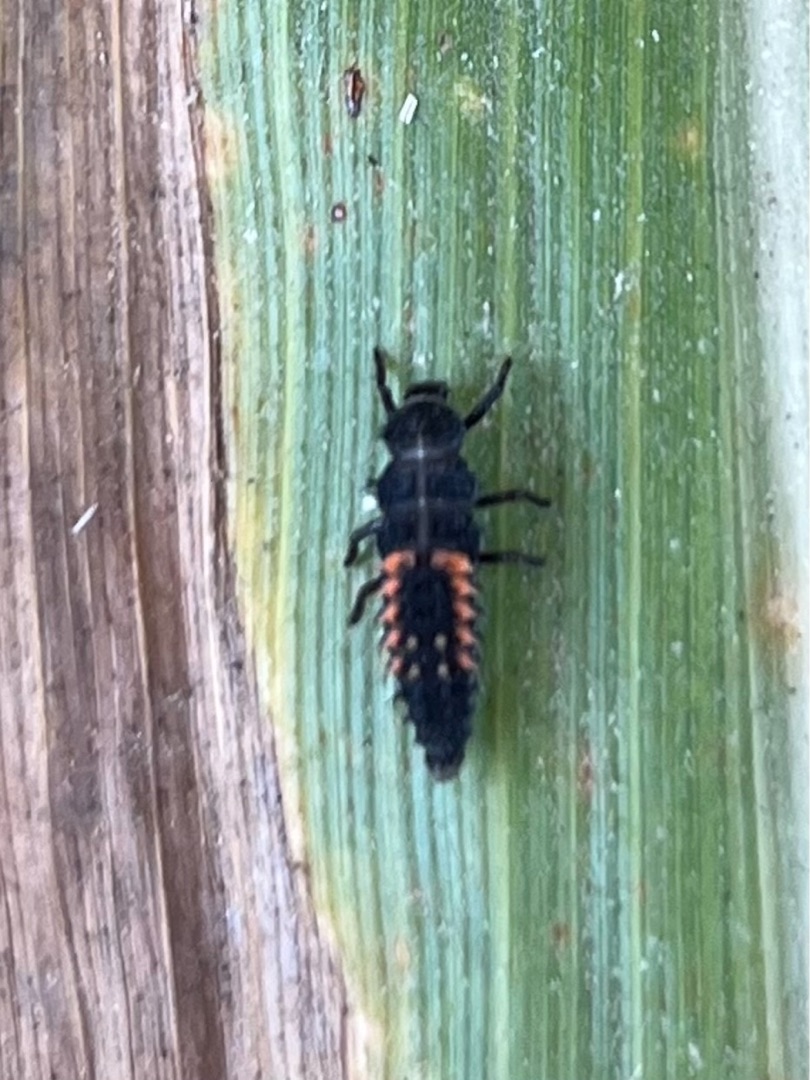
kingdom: Animalia
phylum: Arthropoda
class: Insecta
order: Coleoptera
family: Coccinellidae
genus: Harmonia
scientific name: Harmonia axyridis
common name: Harlekinmariehøne
